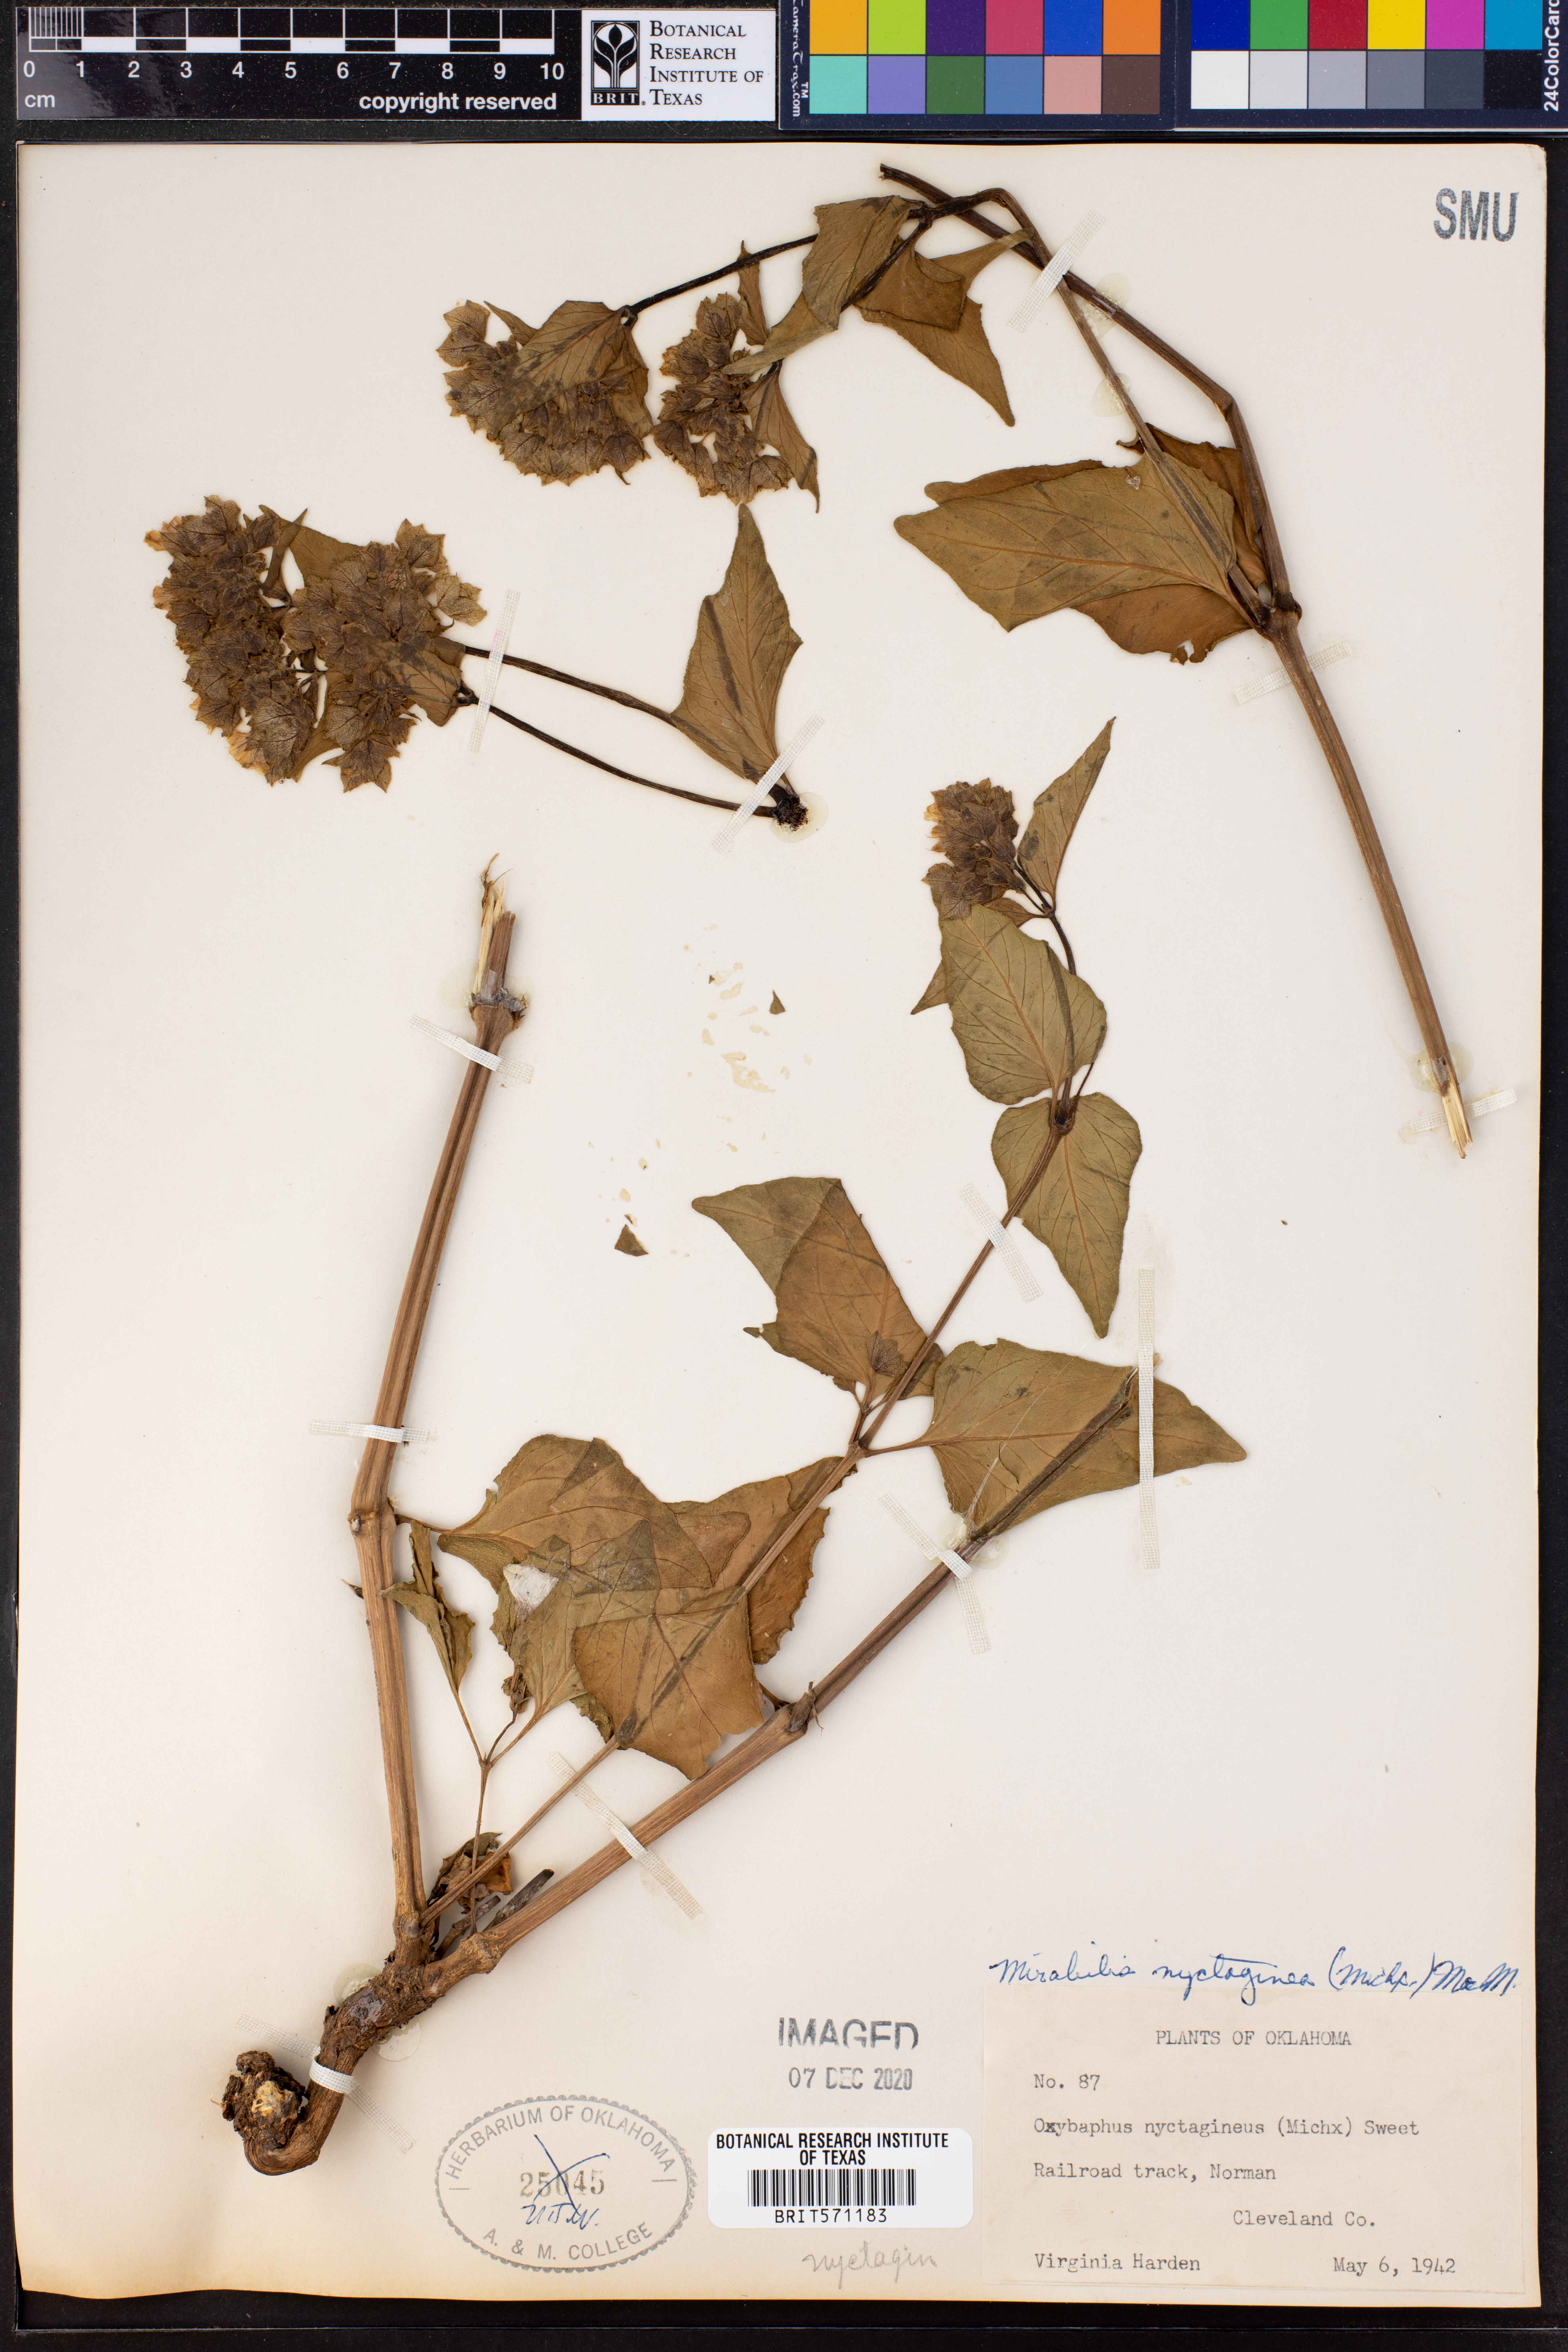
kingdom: Plantae
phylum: Tracheophyta
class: Magnoliopsida
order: Caryophyllales
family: Nyctaginaceae
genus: Mirabilis
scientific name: Mirabilis nyctaginea
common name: Umbrella wort
